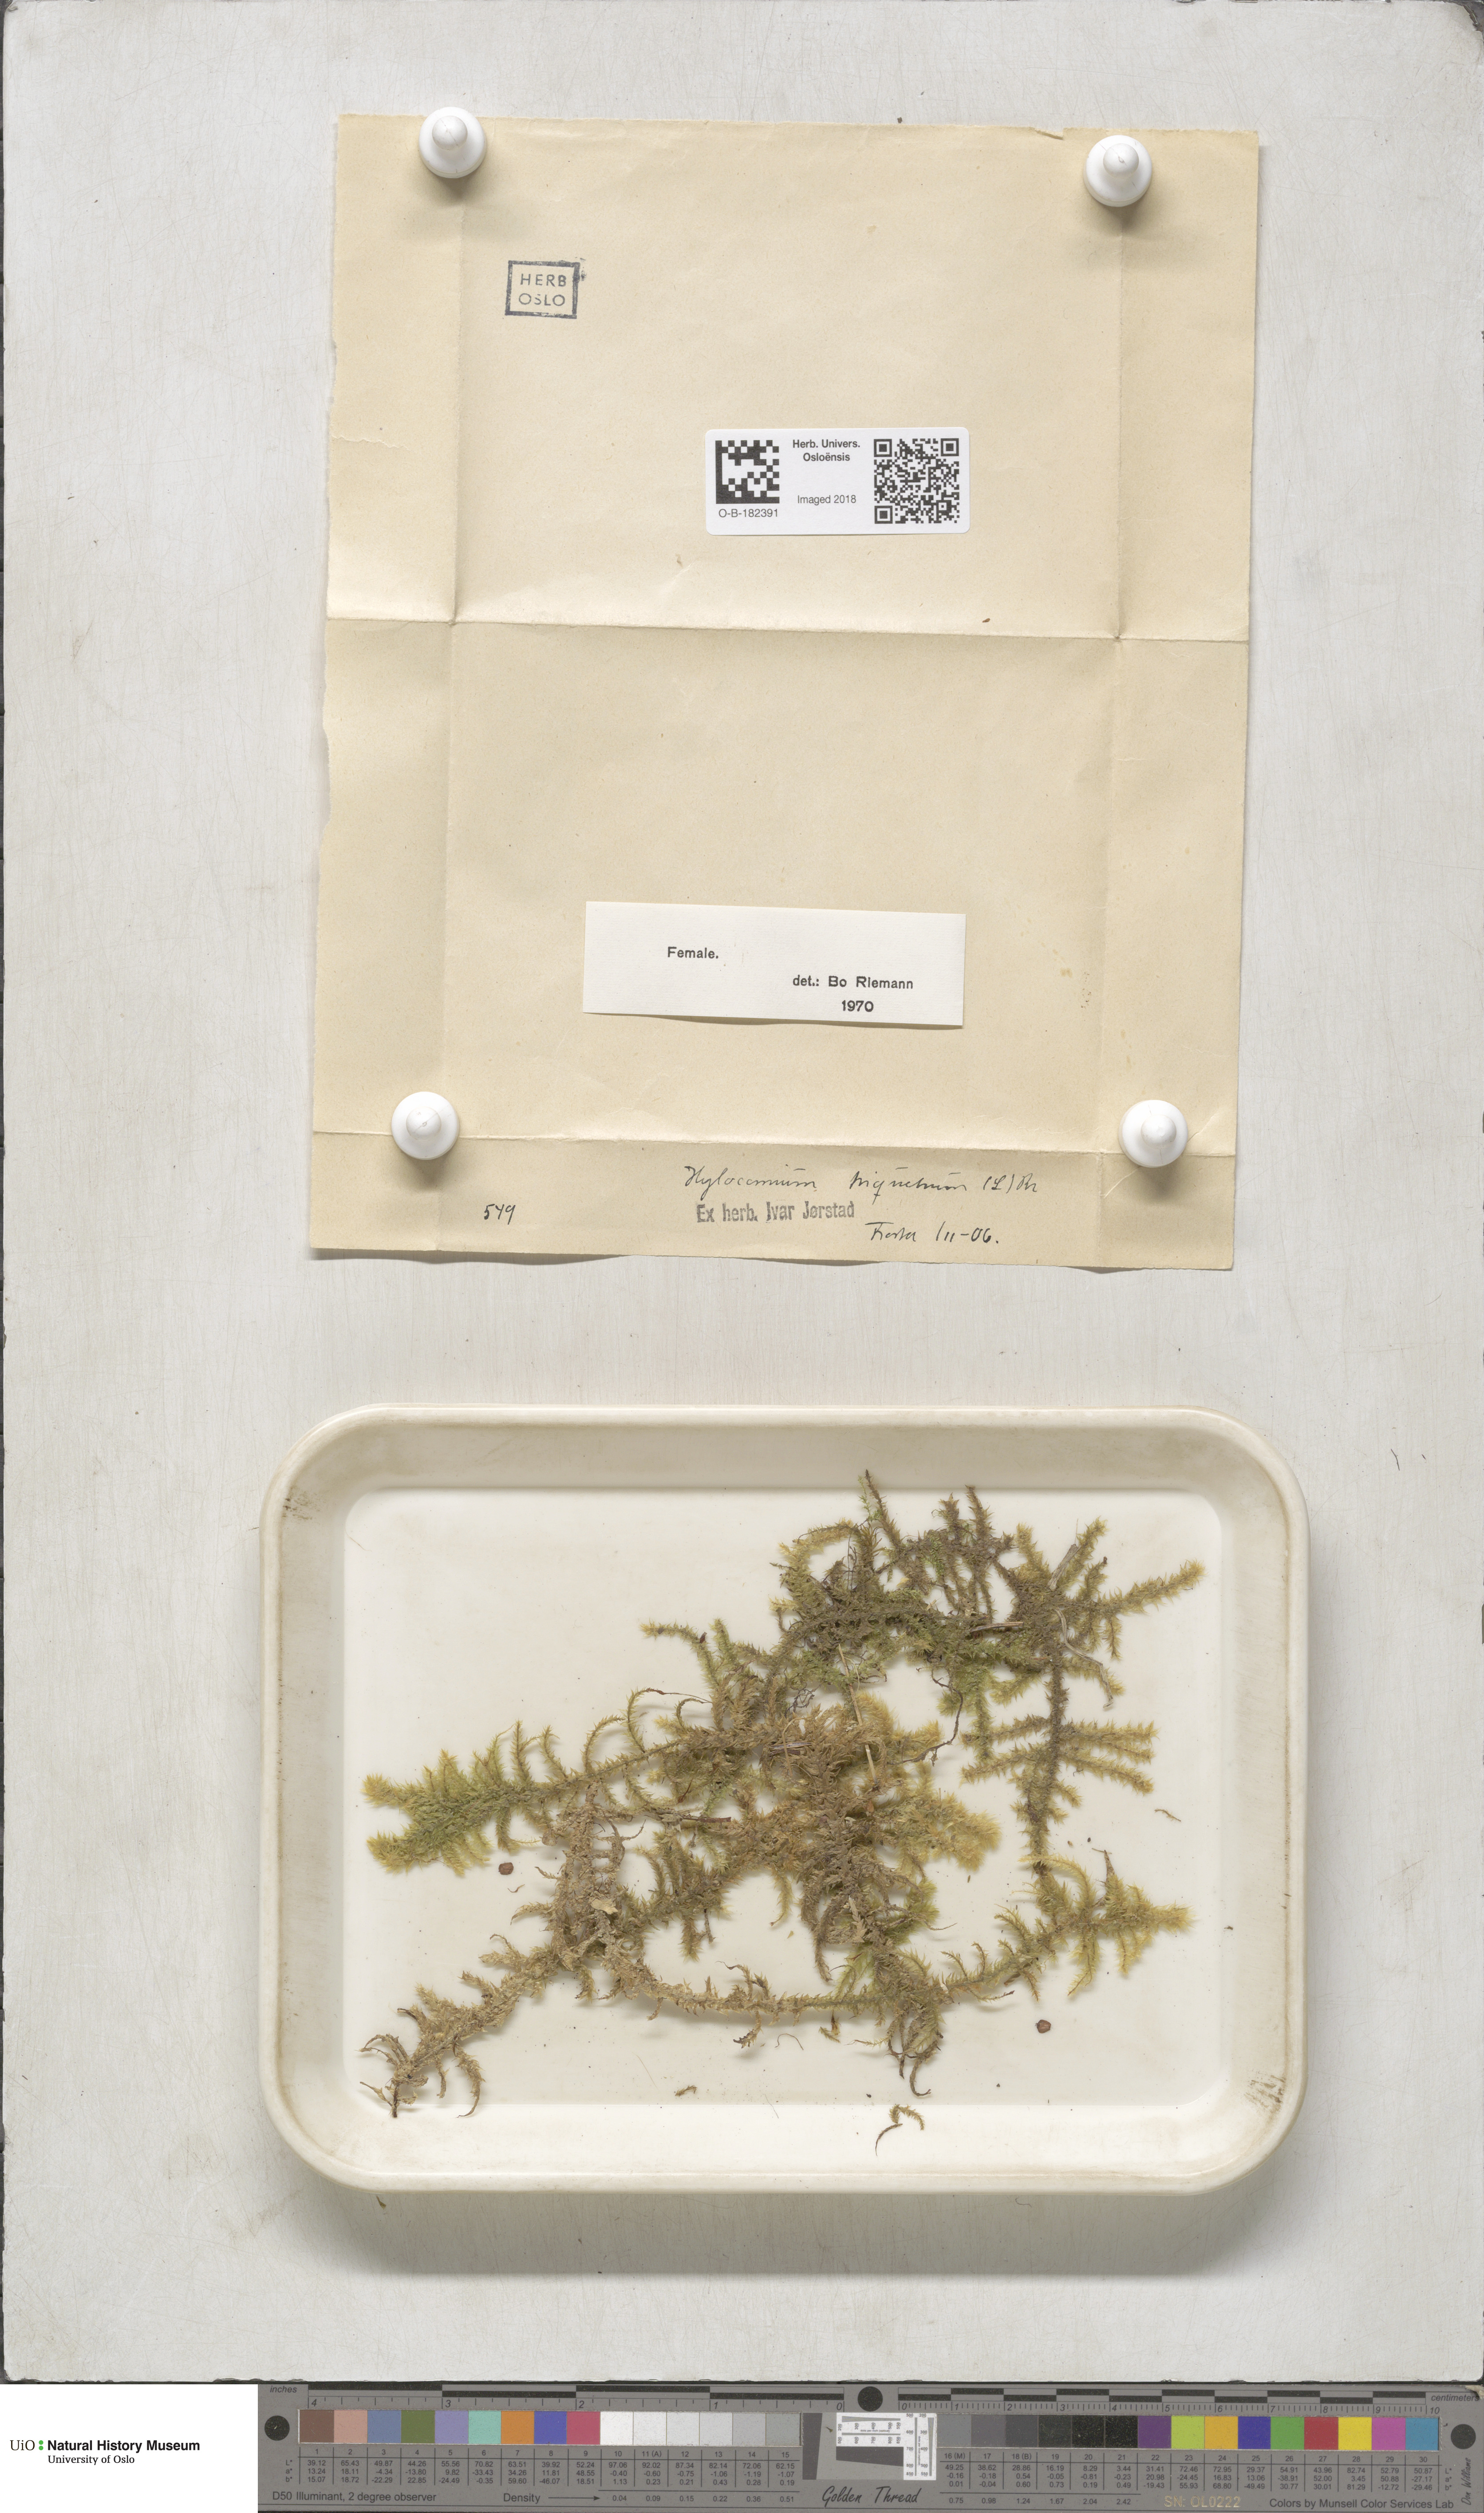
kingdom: Plantae
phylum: Bryophyta
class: Bryopsida
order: Hypnales
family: Hylocomiaceae
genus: Hylocomiadelphus
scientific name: Hylocomiadelphus triquetrus
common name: Rough goose neck moss
